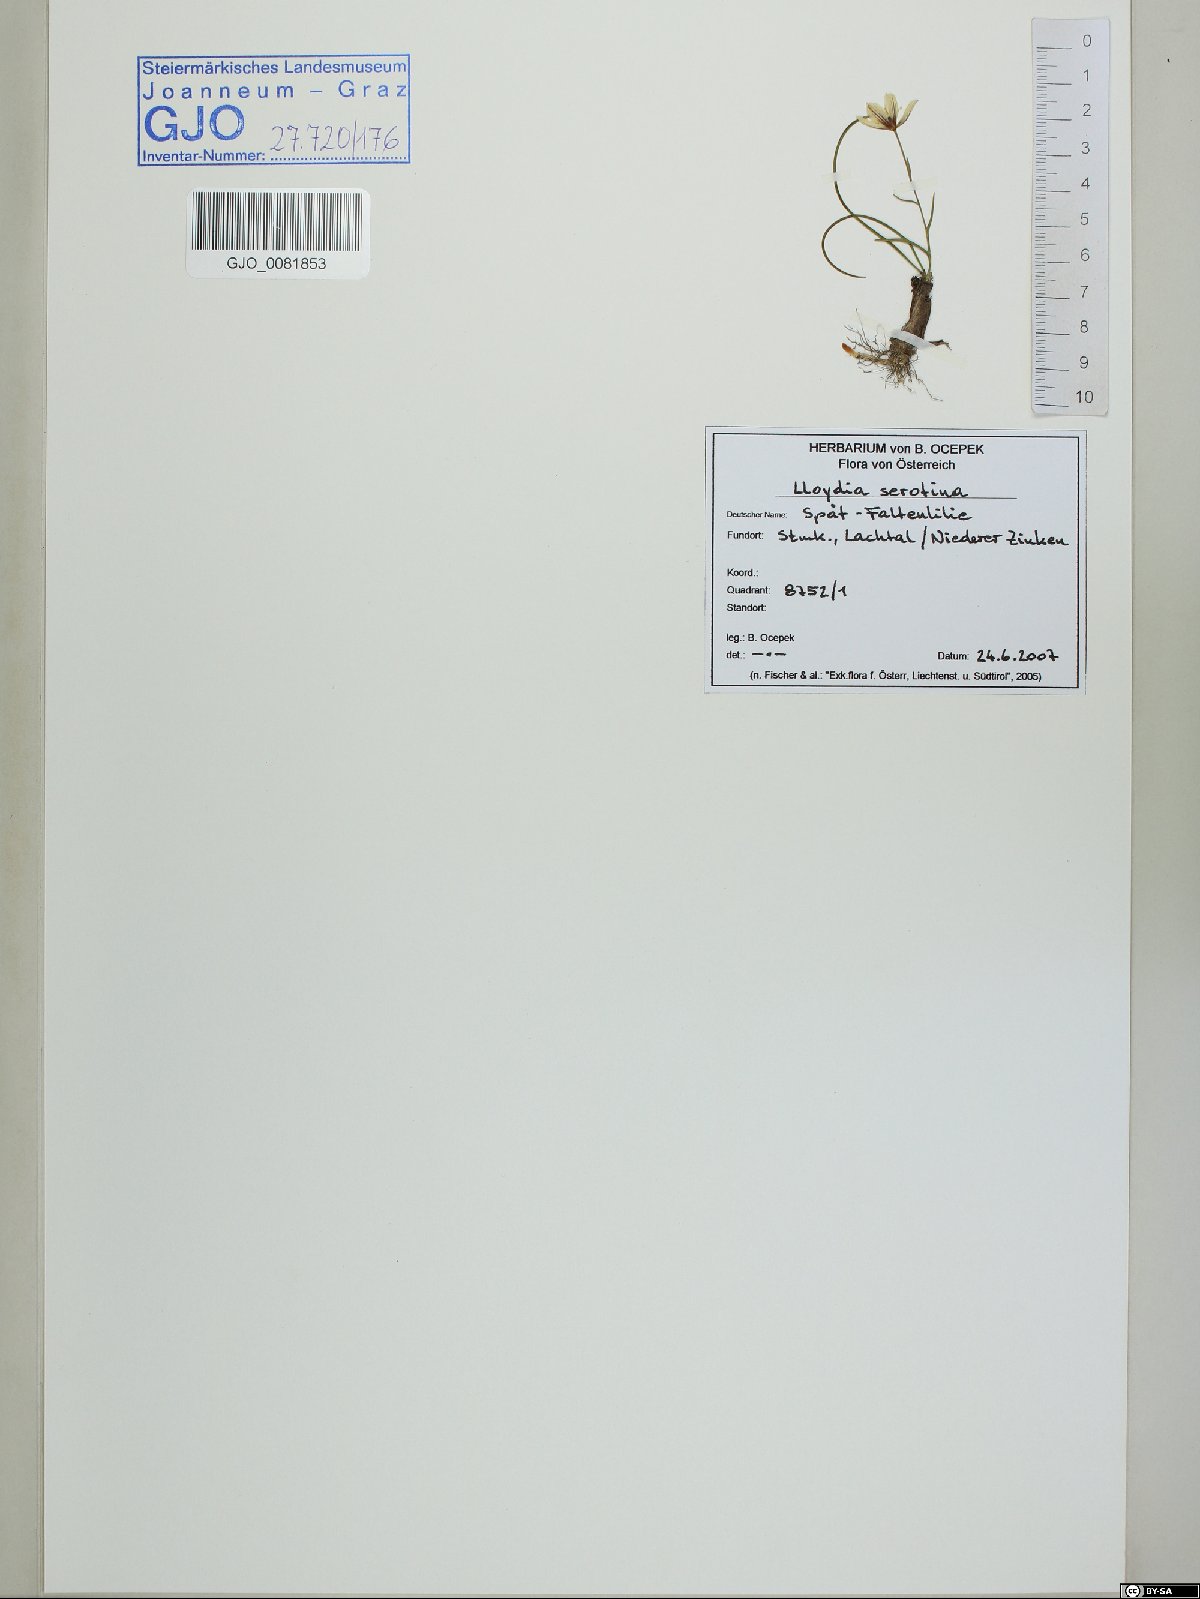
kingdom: Plantae
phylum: Tracheophyta
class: Liliopsida
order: Liliales
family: Liliaceae
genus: Gagea
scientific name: Gagea serotina
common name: Snowdon lily
